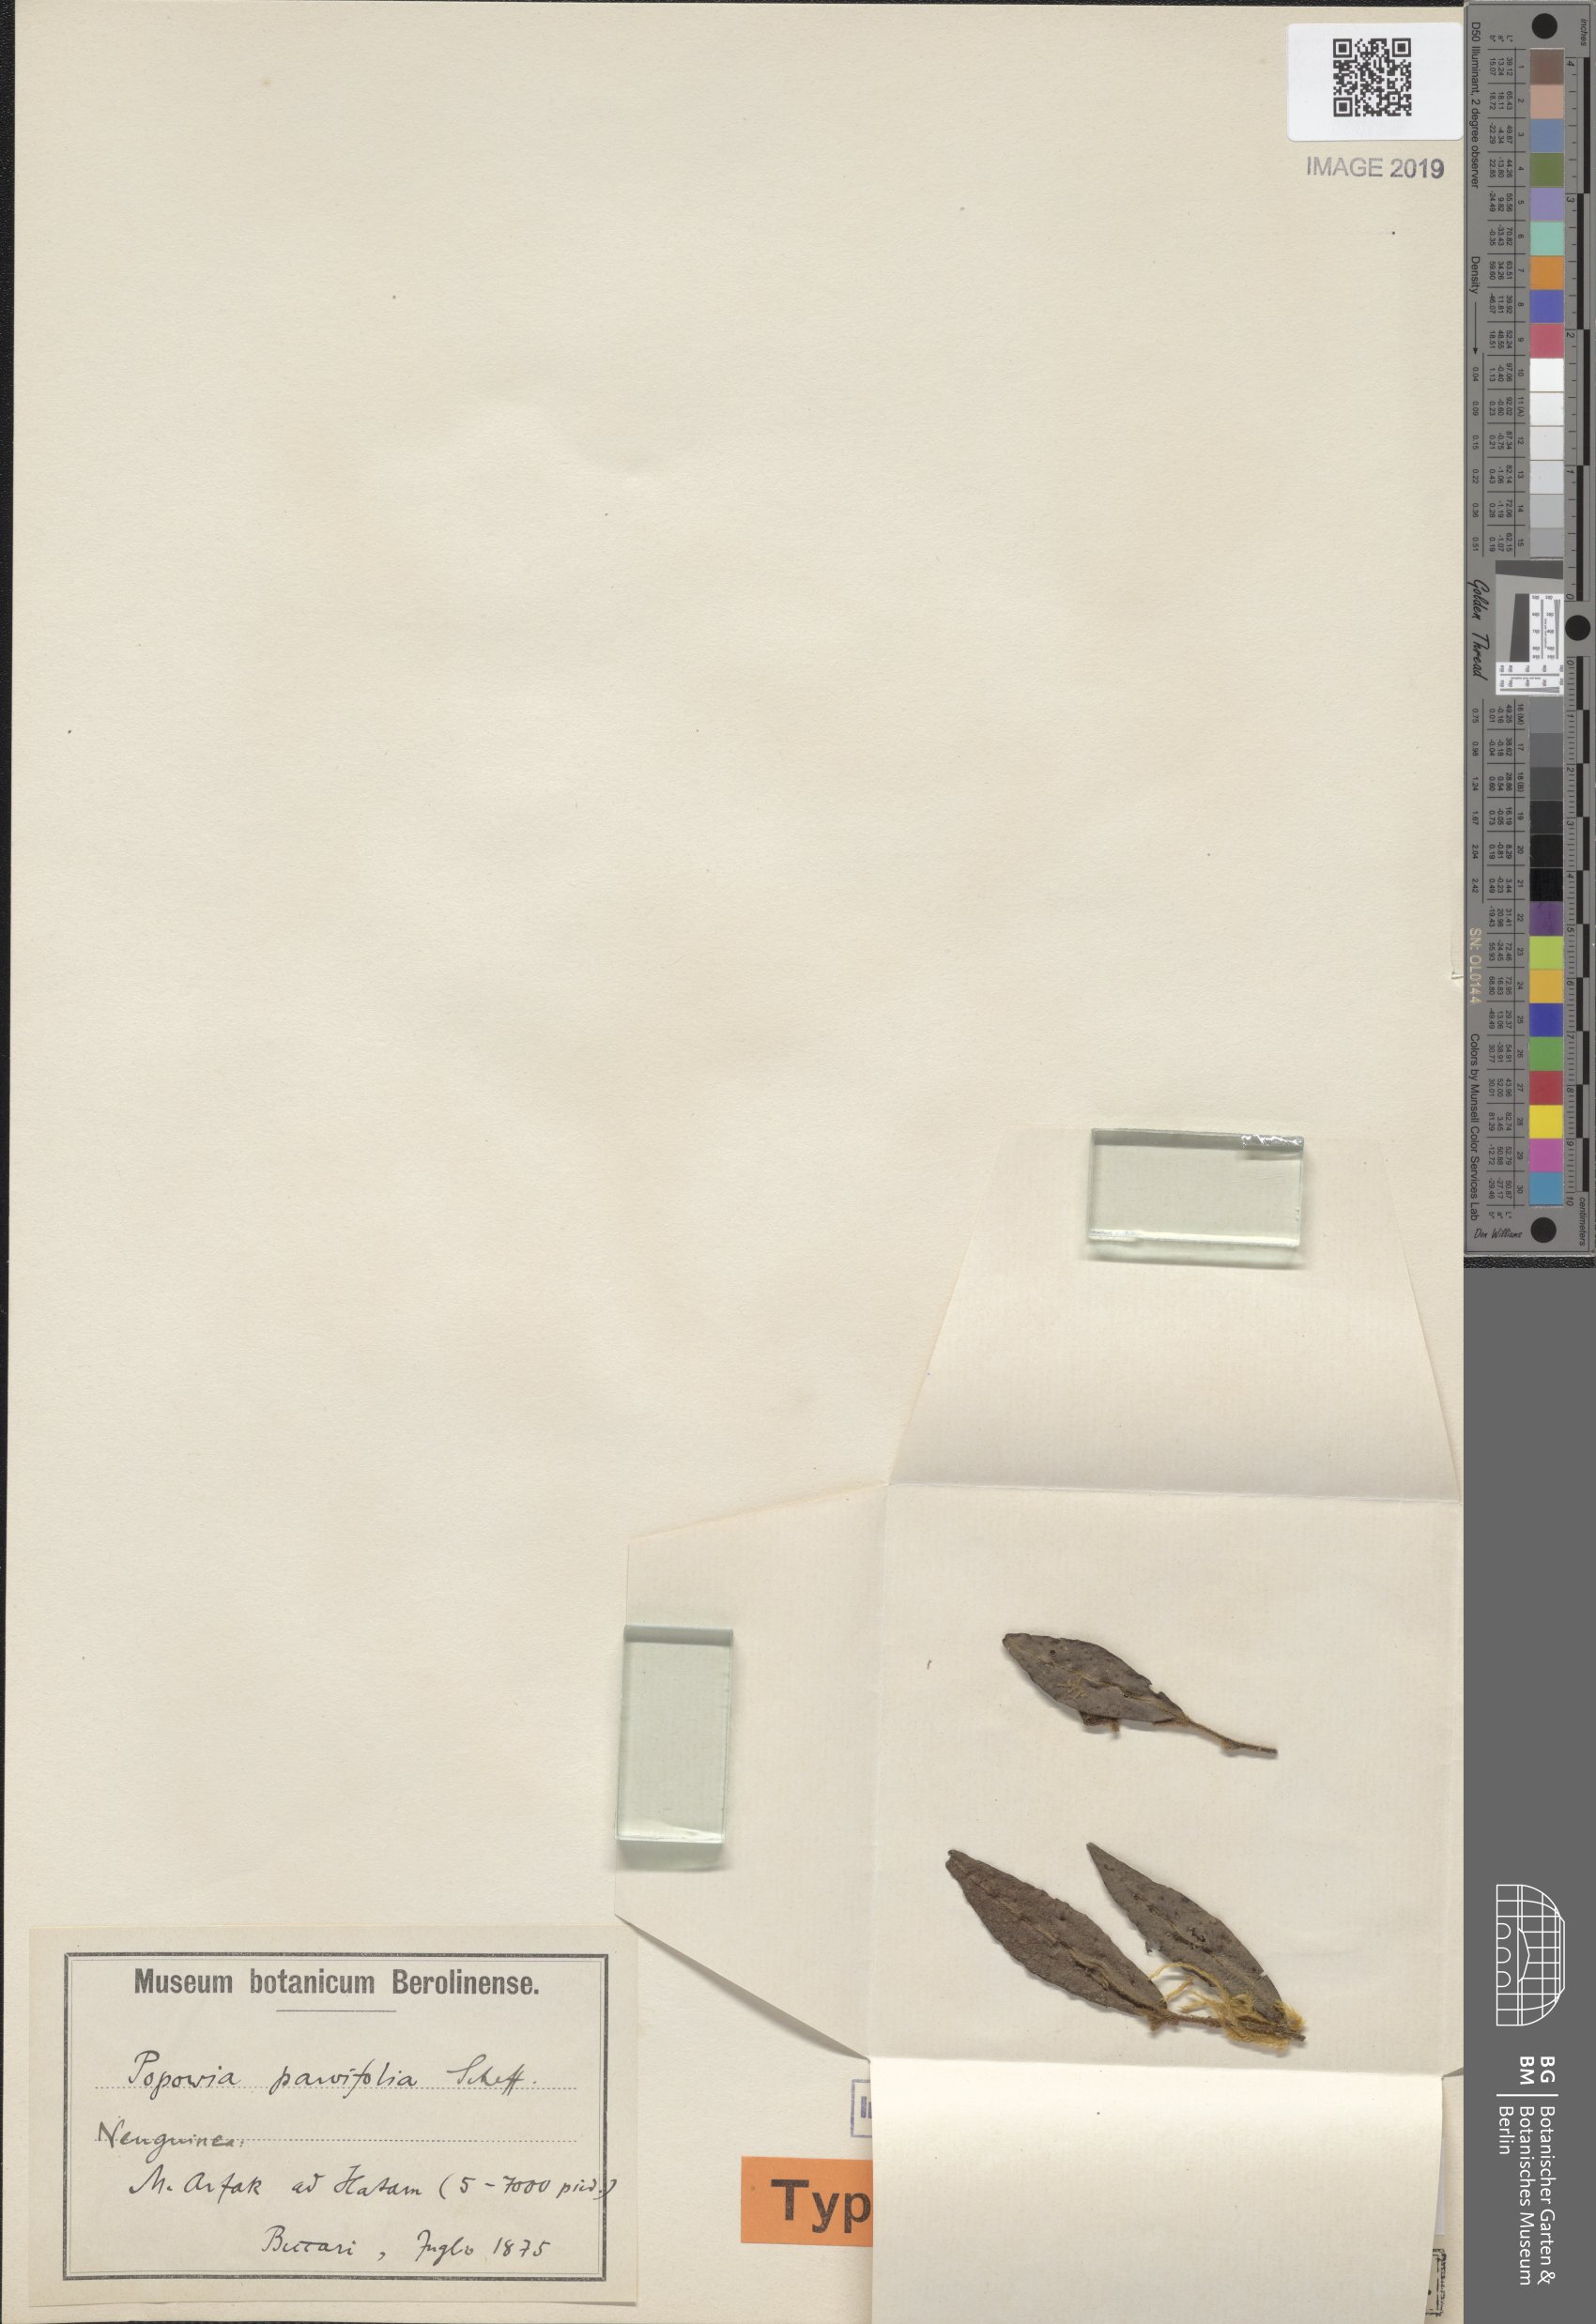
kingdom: Plantae
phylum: Tracheophyta
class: Magnoliopsida
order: Magnoliales
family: Annonaceae
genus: Friesodielsia
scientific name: Friesodielsia
